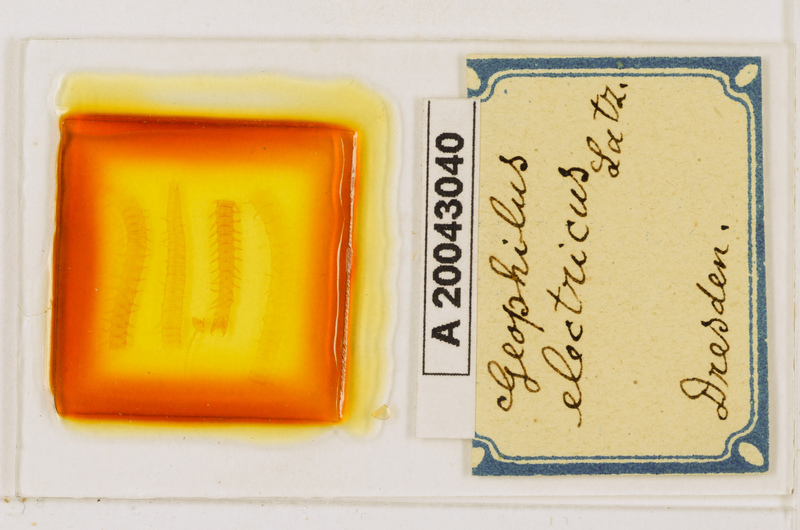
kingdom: Animalia
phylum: Arthropoda
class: Chilopoda
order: Geophilomorpha
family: Geophilidae
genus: Geophilus
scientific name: Geophilus electricus
